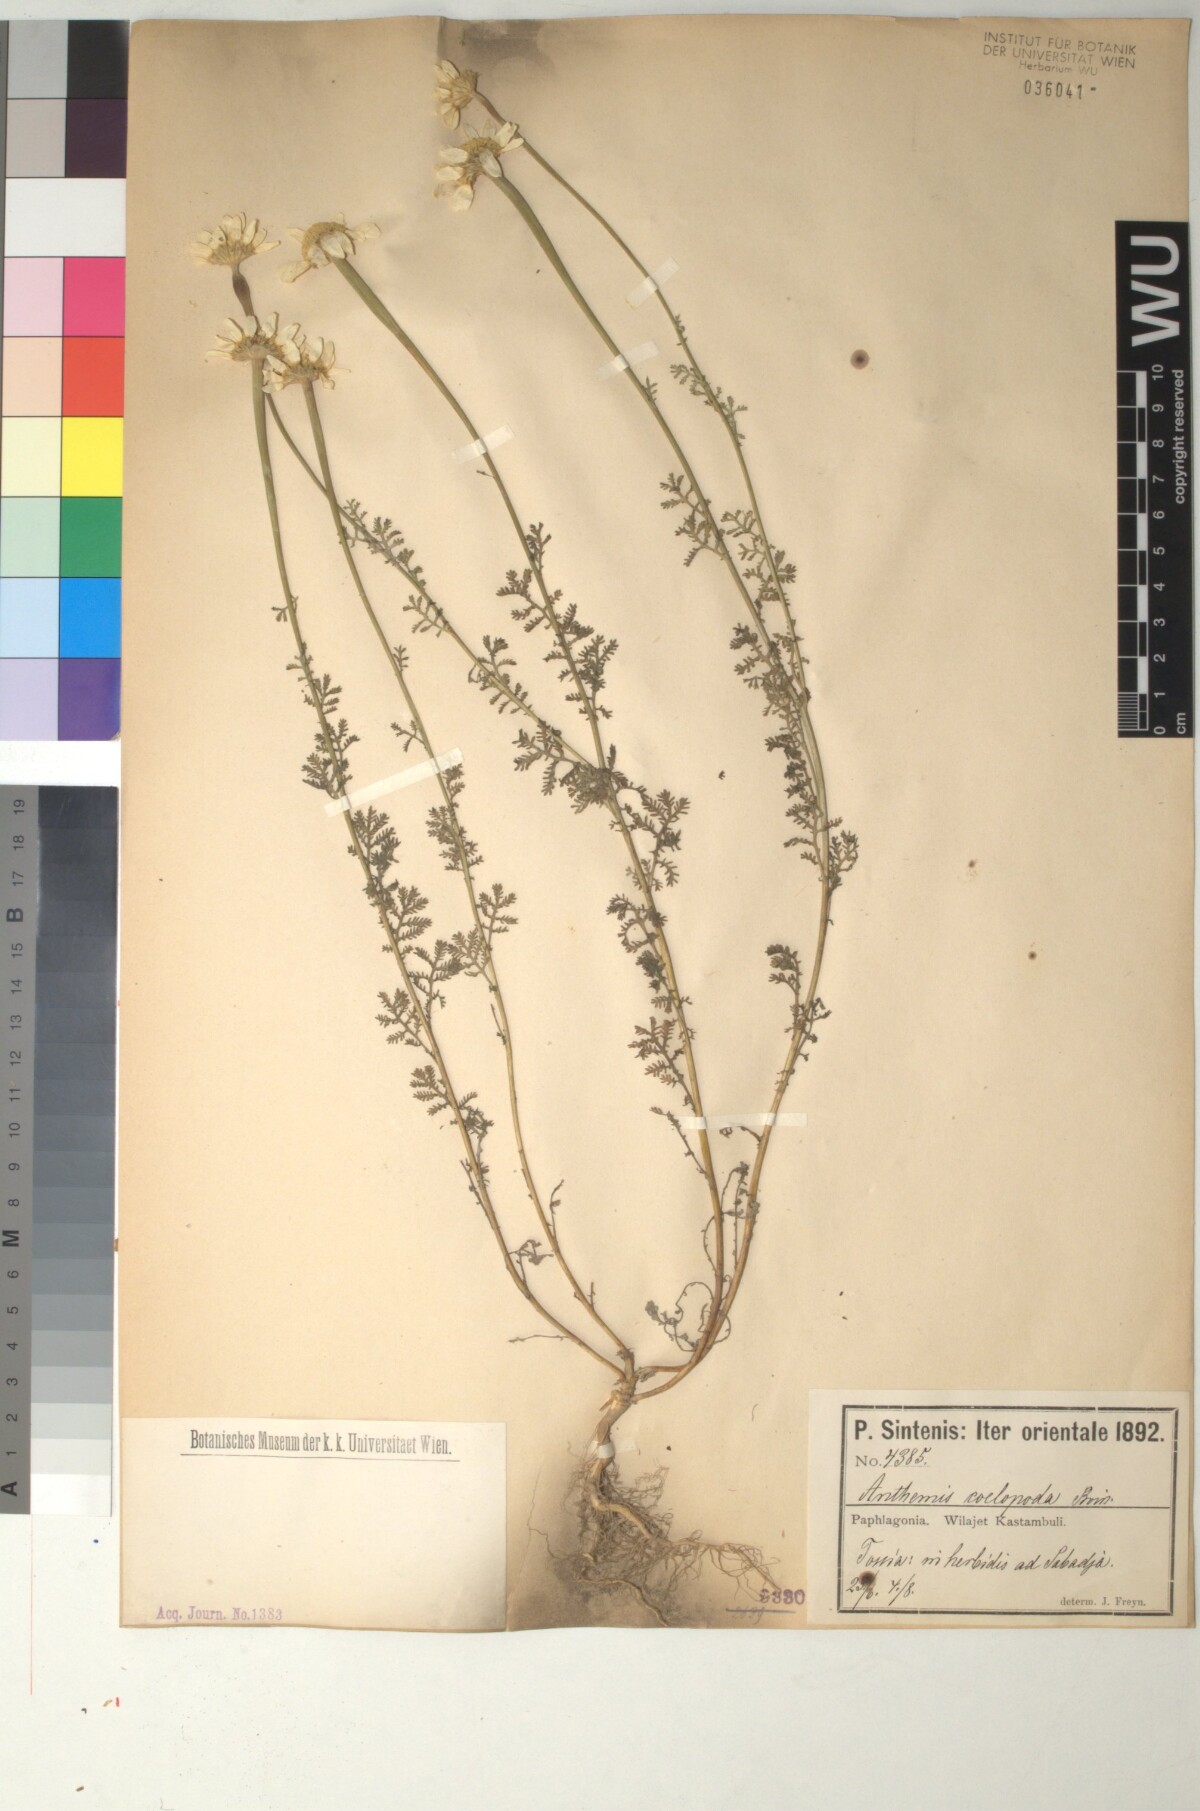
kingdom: Plantae
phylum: Tracheophyta
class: Magnoliopsida
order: Asterales
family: Asteraceae
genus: Cota
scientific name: Cota coelopoda
